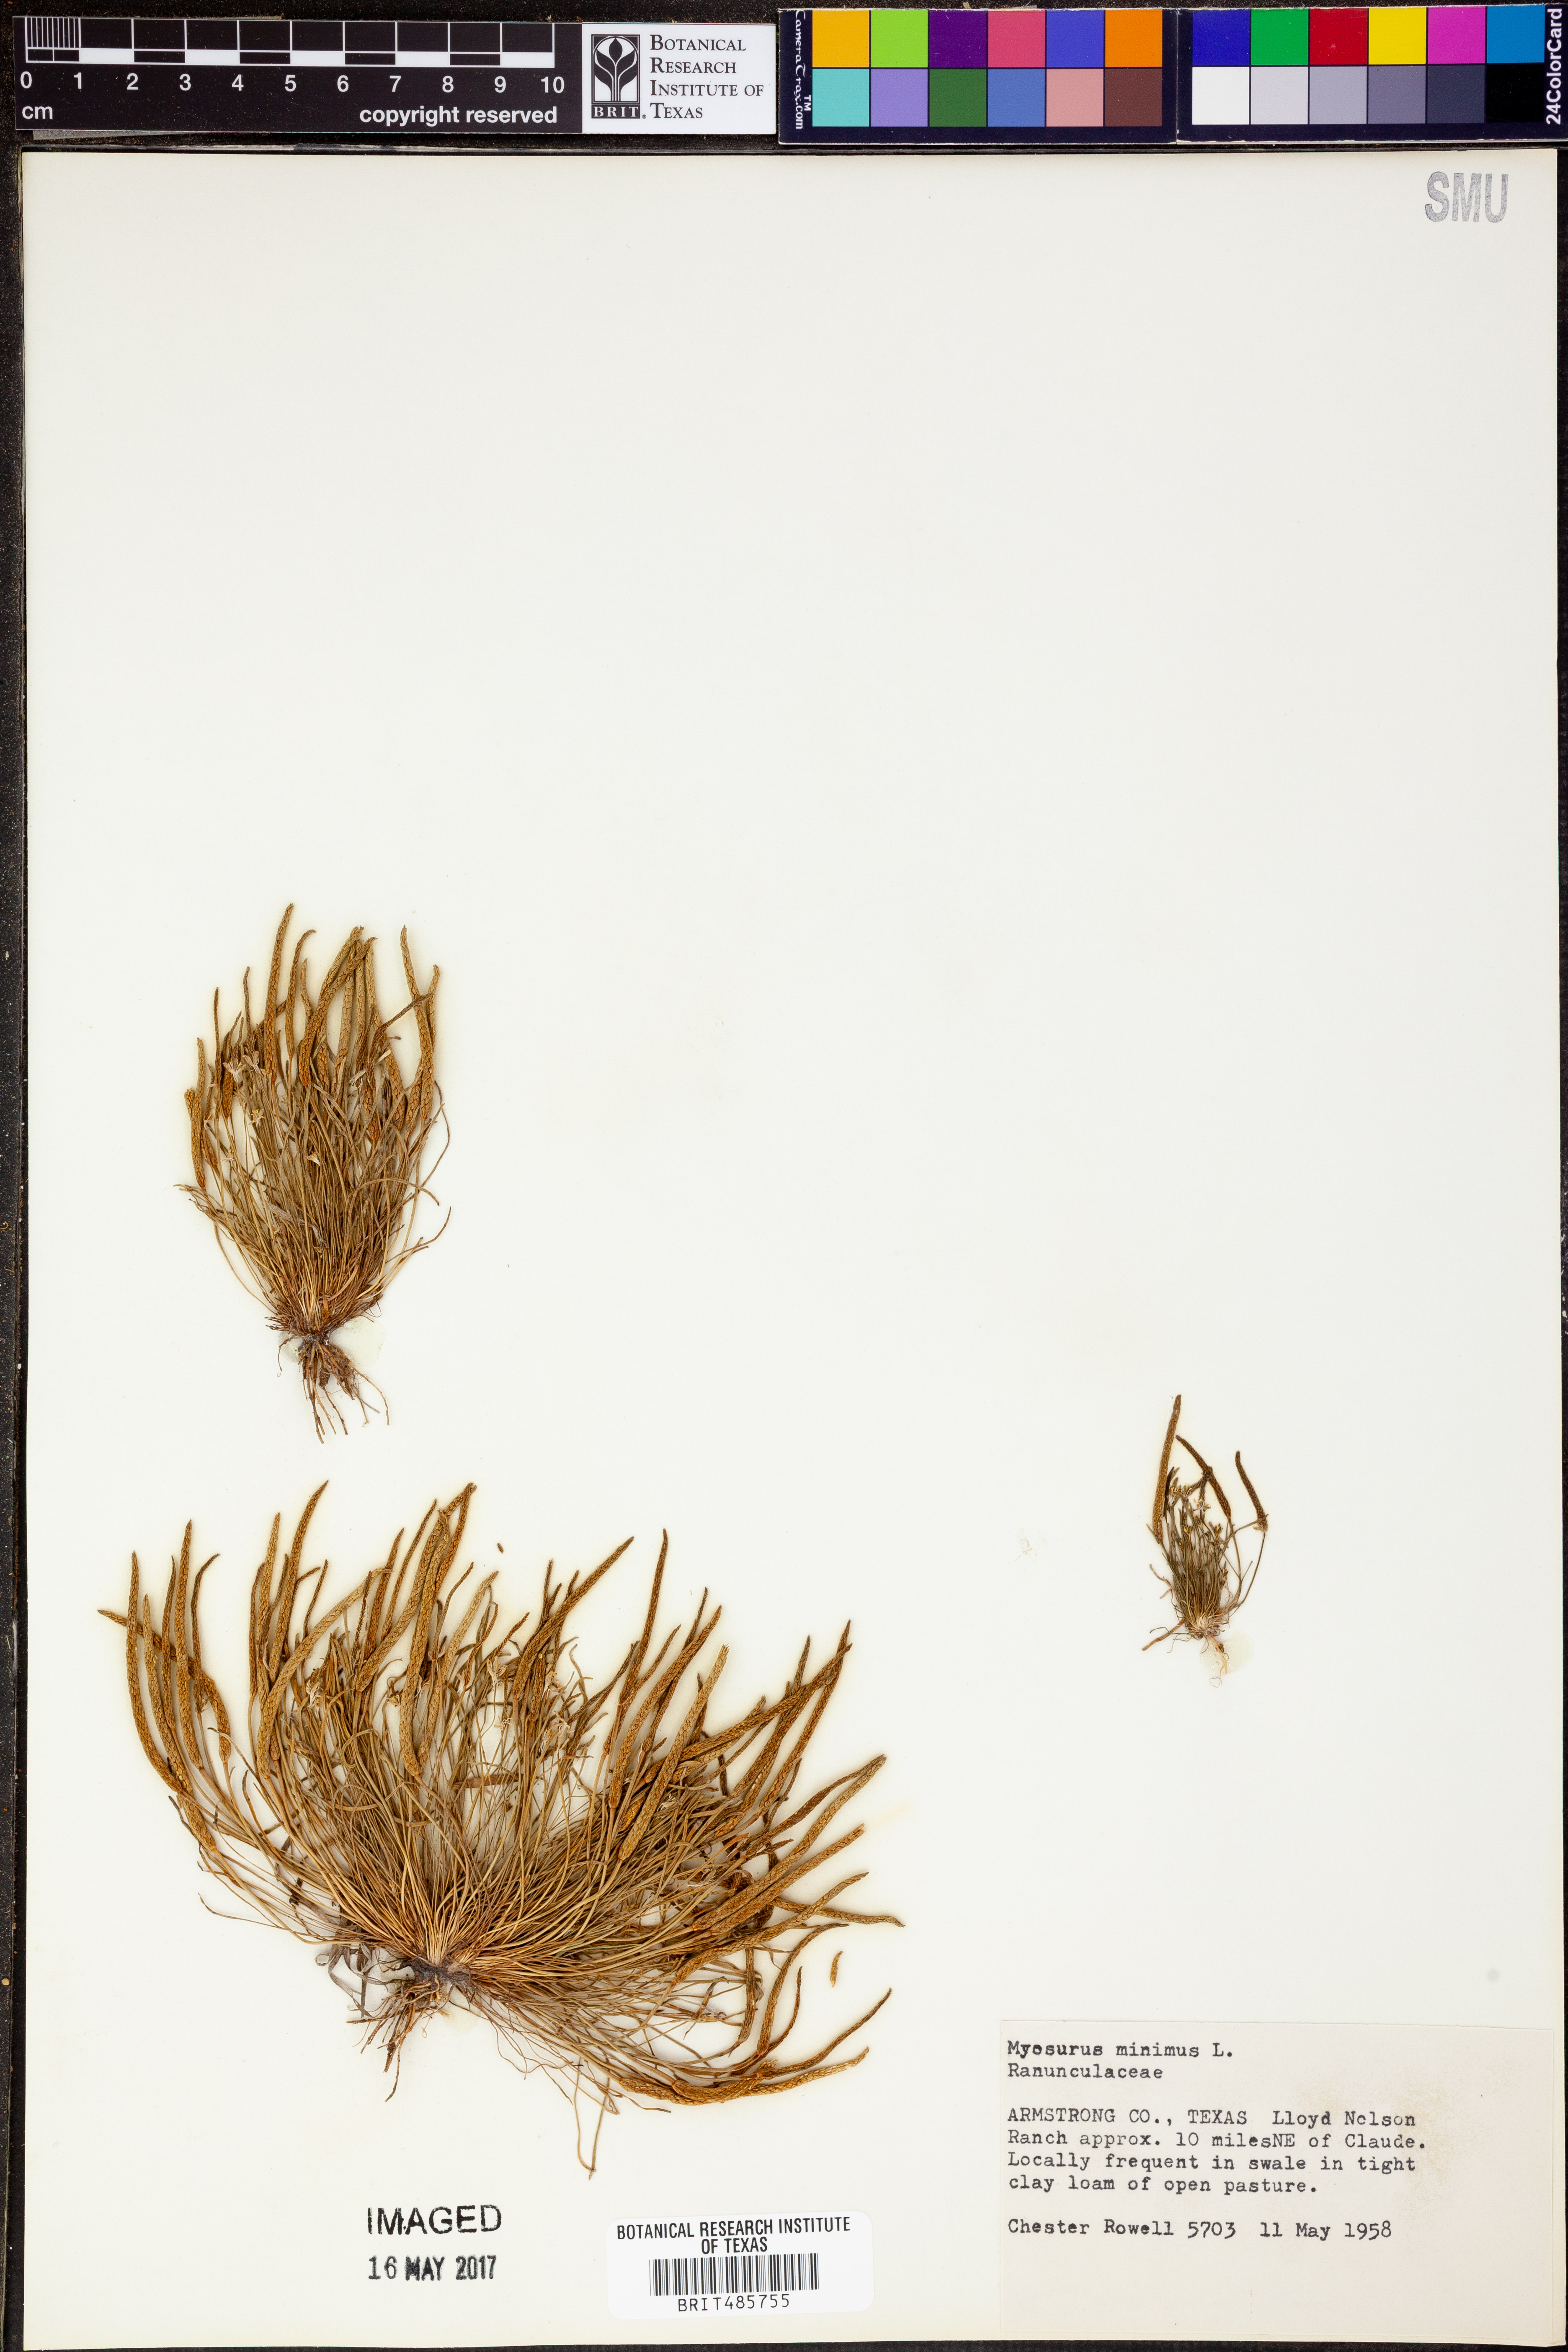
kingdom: Plantae
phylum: Tracheophyta
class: Magnoliopsida
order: Ranunculales
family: Ranunculaceae
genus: Myosurus
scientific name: Myosurus minimus
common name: Mousetail
